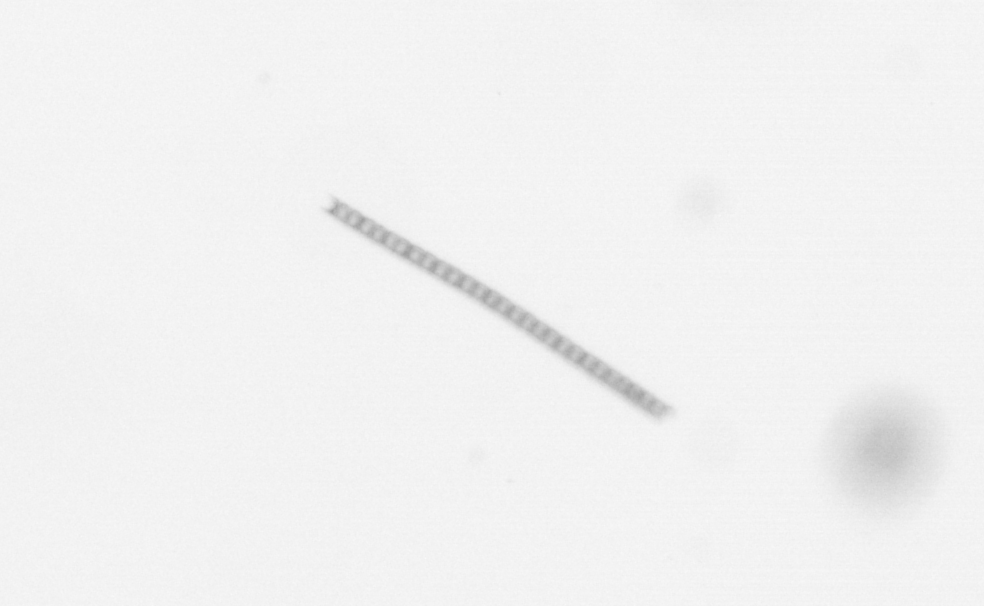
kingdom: Chromista
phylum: Ochrophyta
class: Bacillariophyceae
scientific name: Bacillariophyceae
